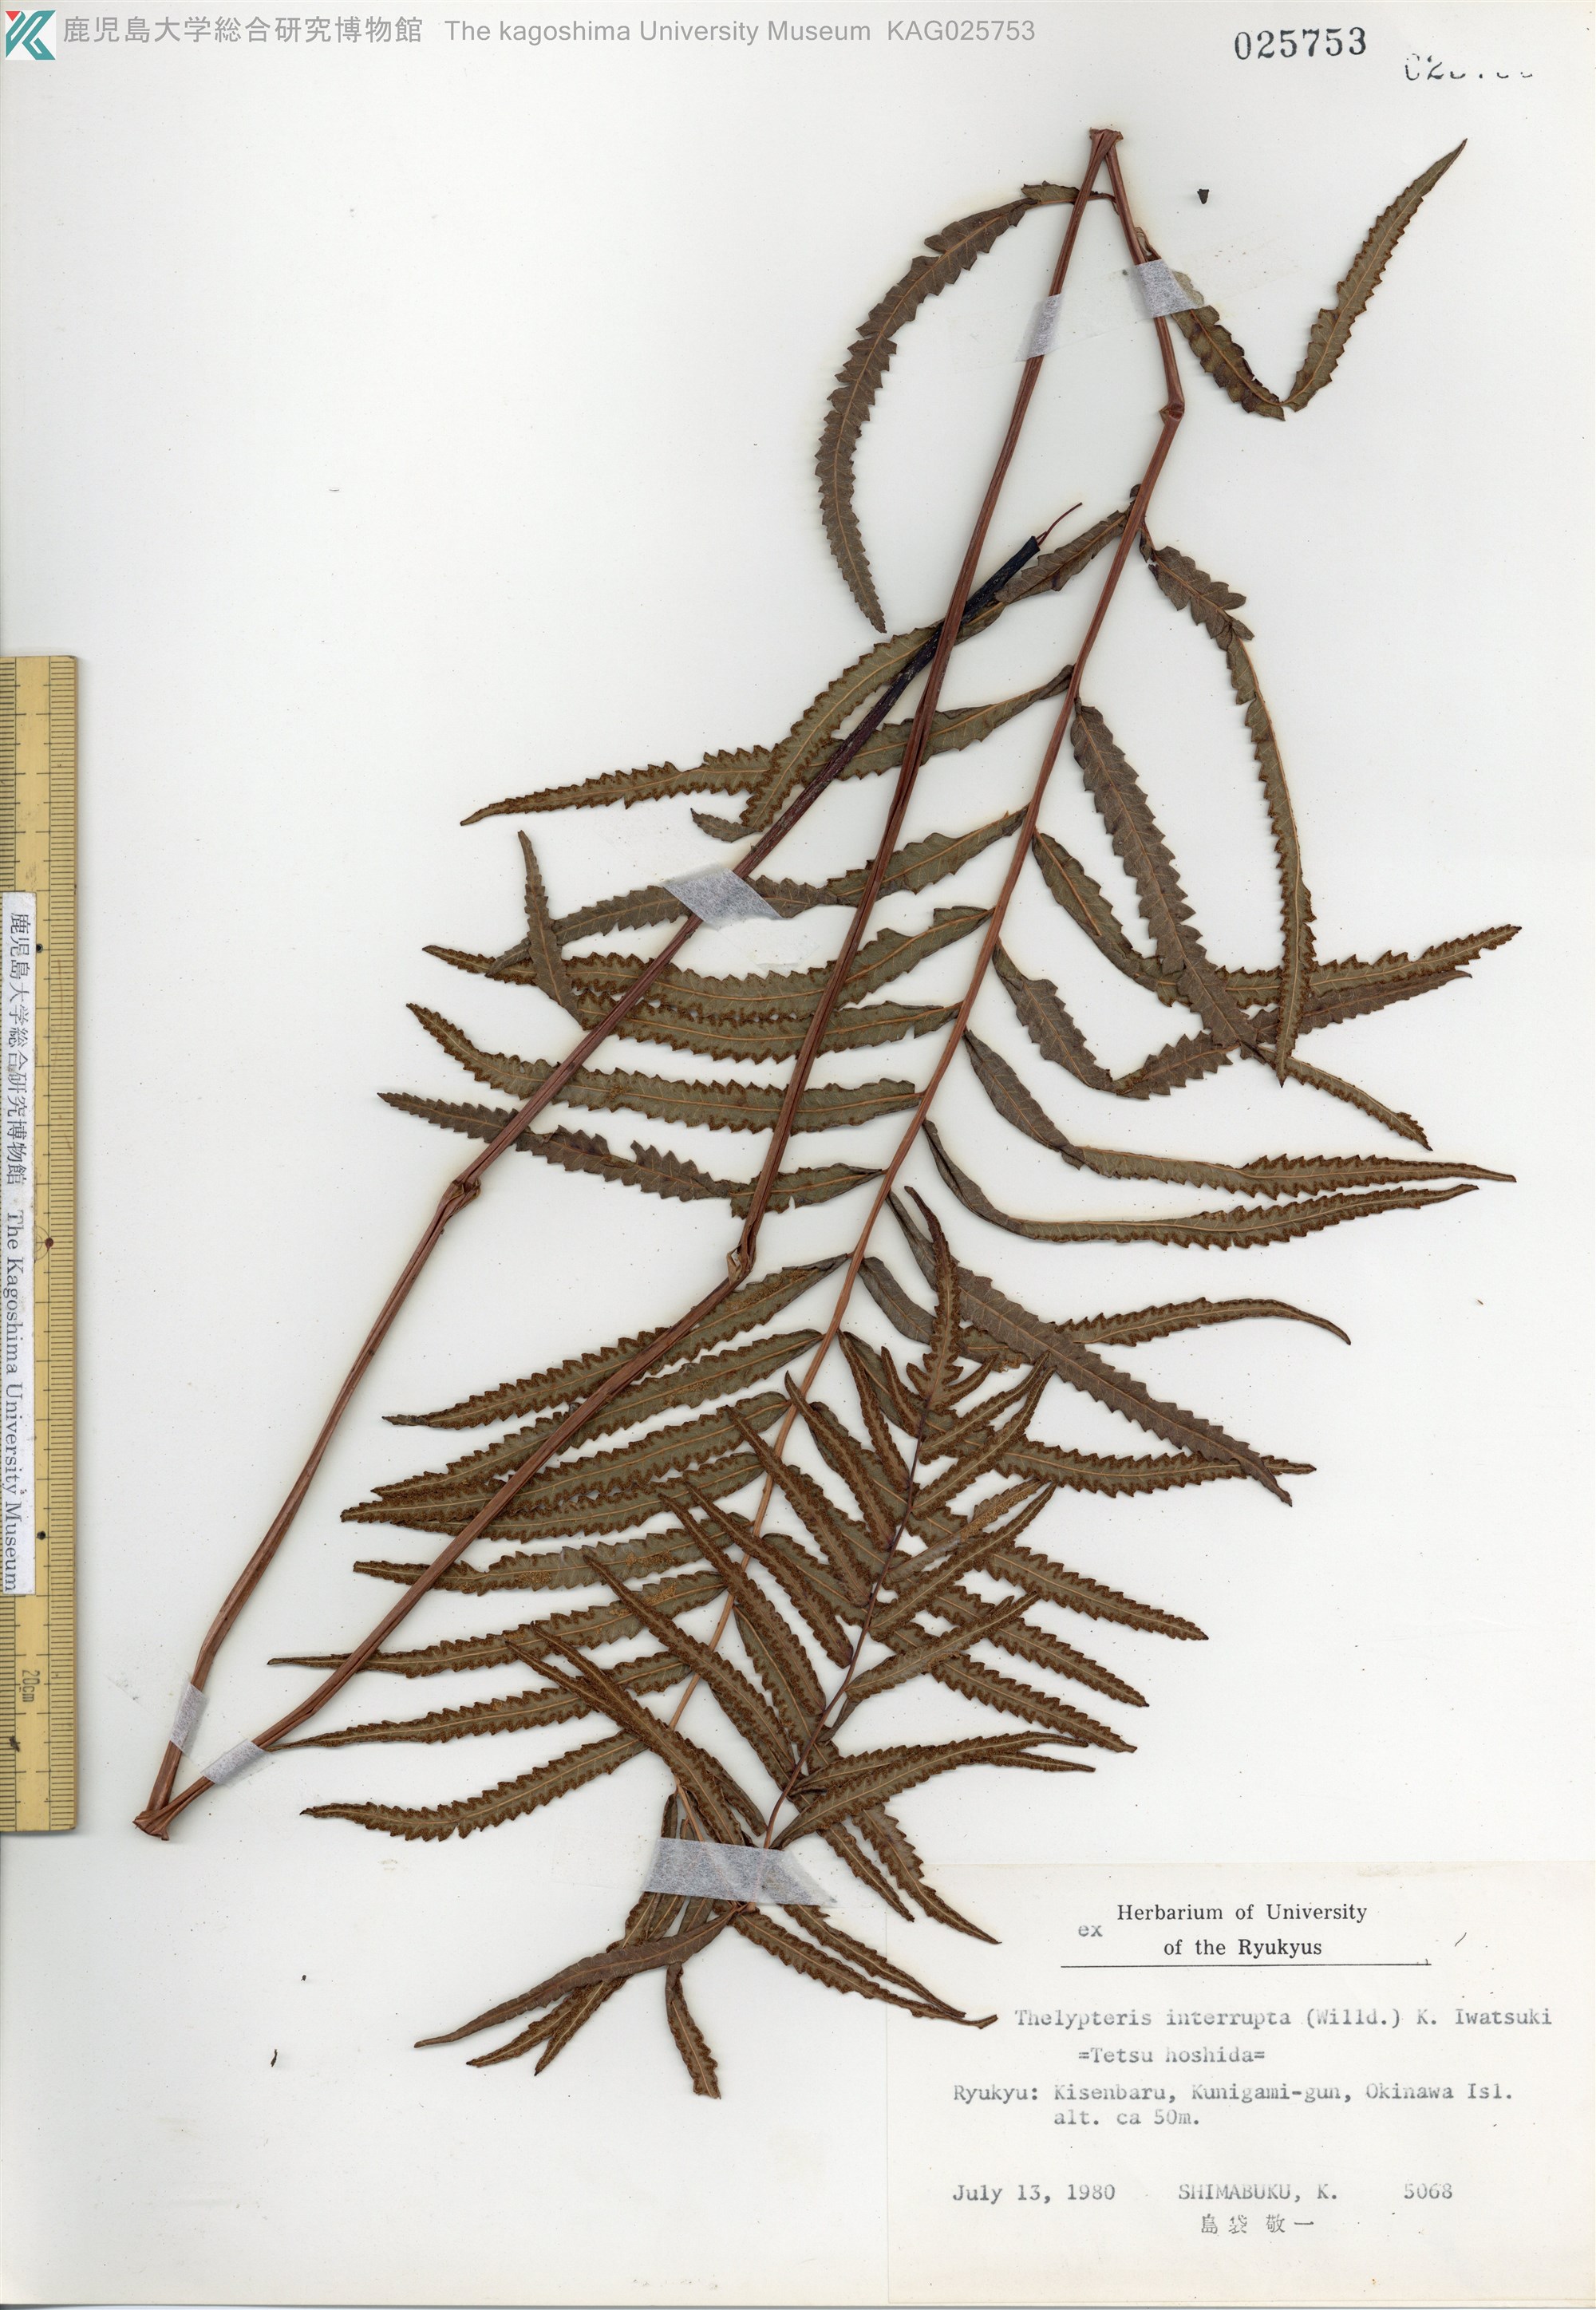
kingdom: Plantae
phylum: Tracheophyta
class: Polypodiopsida
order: Polypodiales
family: Thelypteridaceae
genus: Cyclosorus
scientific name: Cyclosorus interruptus
